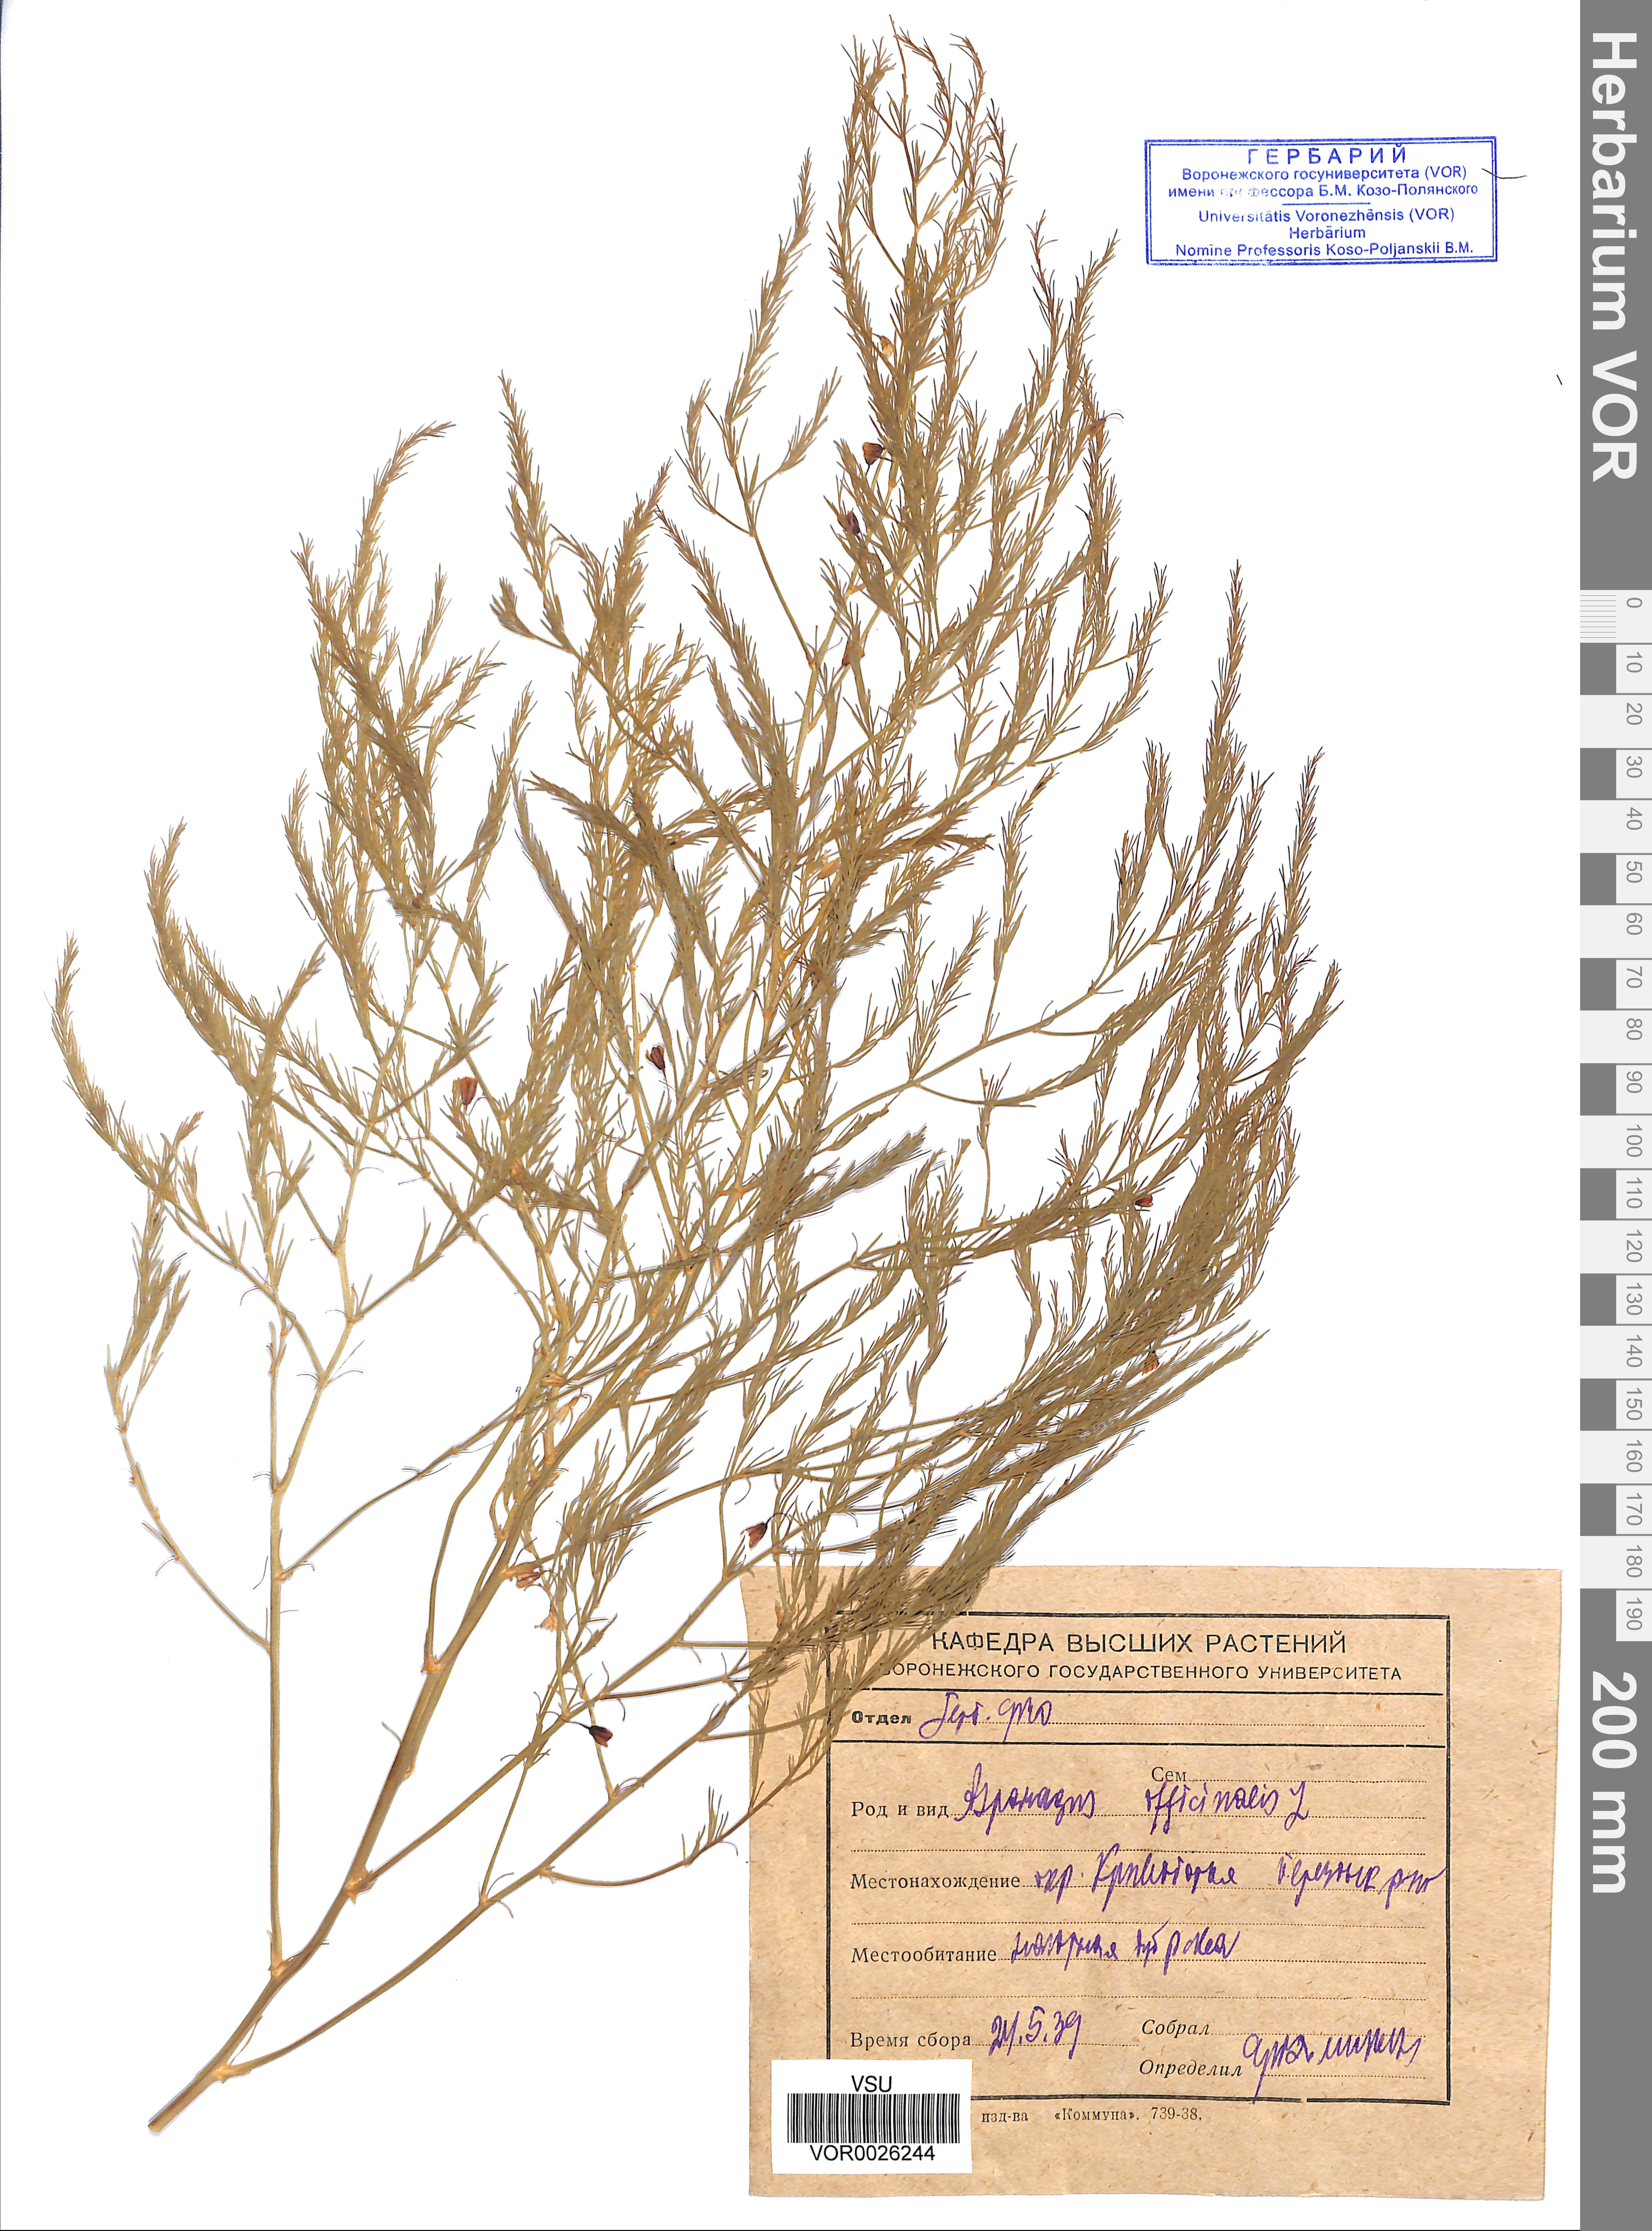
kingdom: Plantae
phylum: Tracheophyta
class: Liliopsida
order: Asparagales
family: Asparagaceae
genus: Asparagus
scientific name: Asparagus officinalis
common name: Garden asparagus
